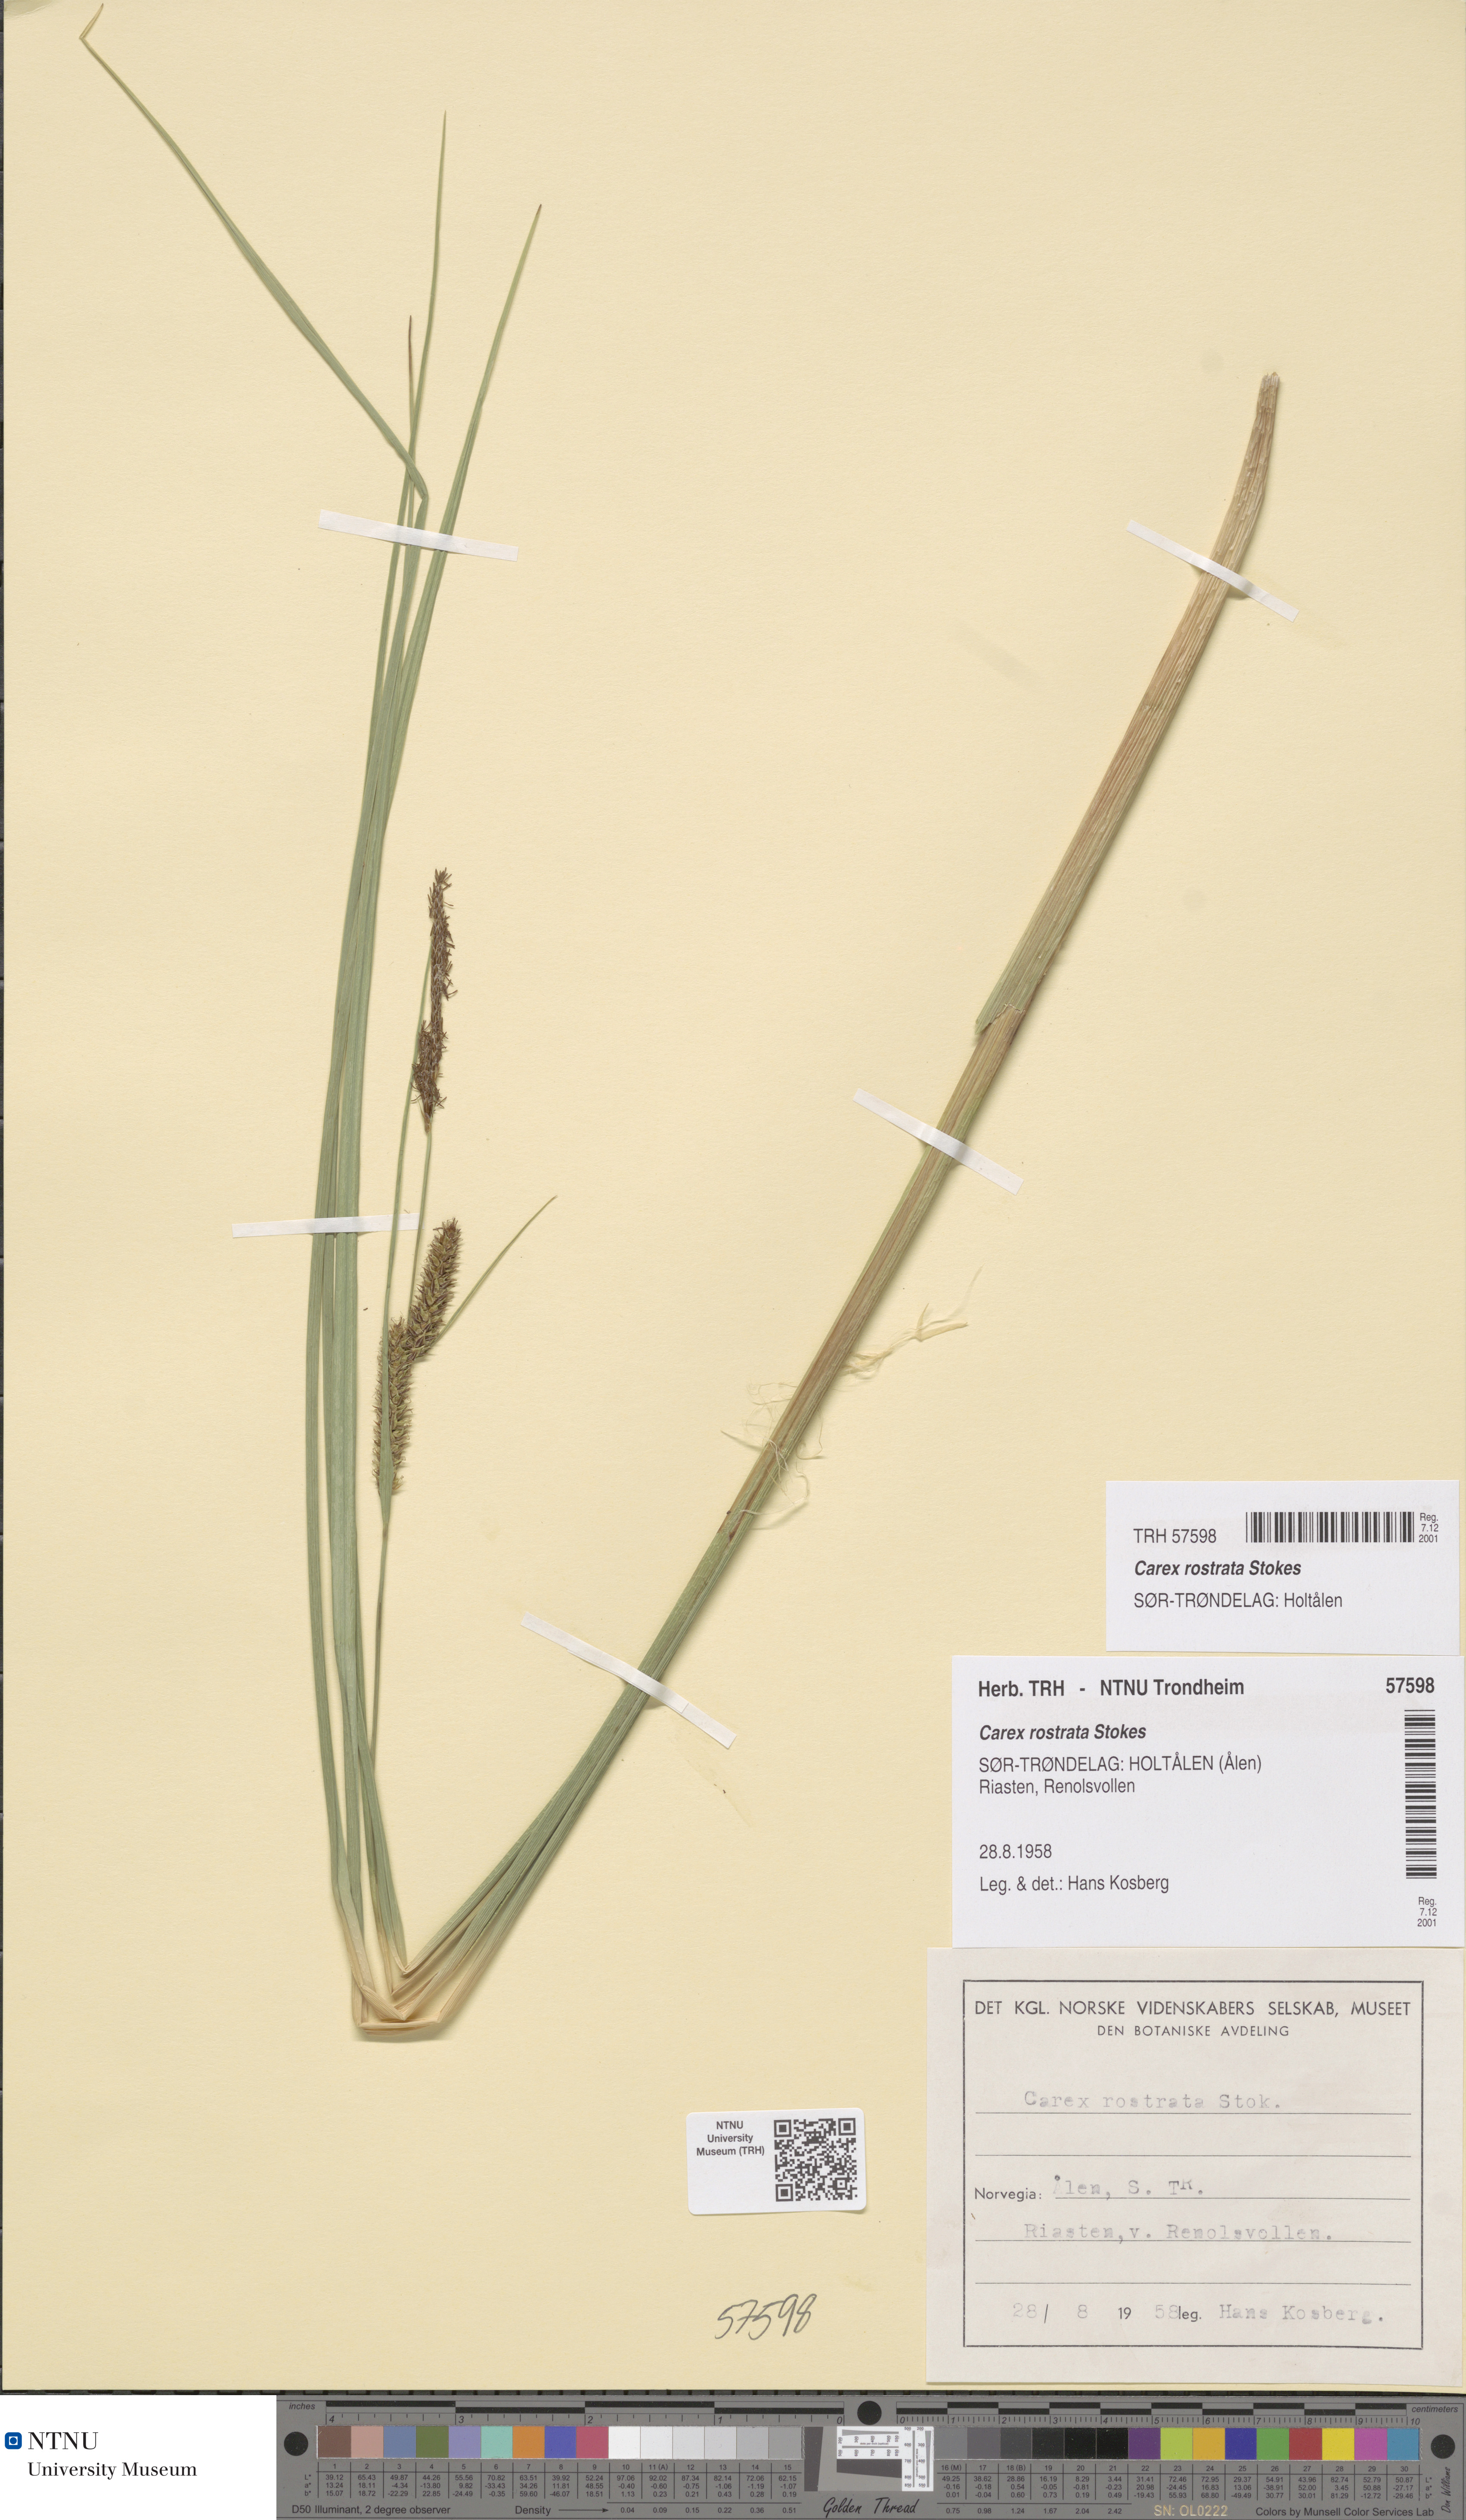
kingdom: Plantae
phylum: Tracheophyta
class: Liliopsida
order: Poales
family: Cyperaceae
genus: Carex
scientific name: Carex rostrata
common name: Bottle sedge
